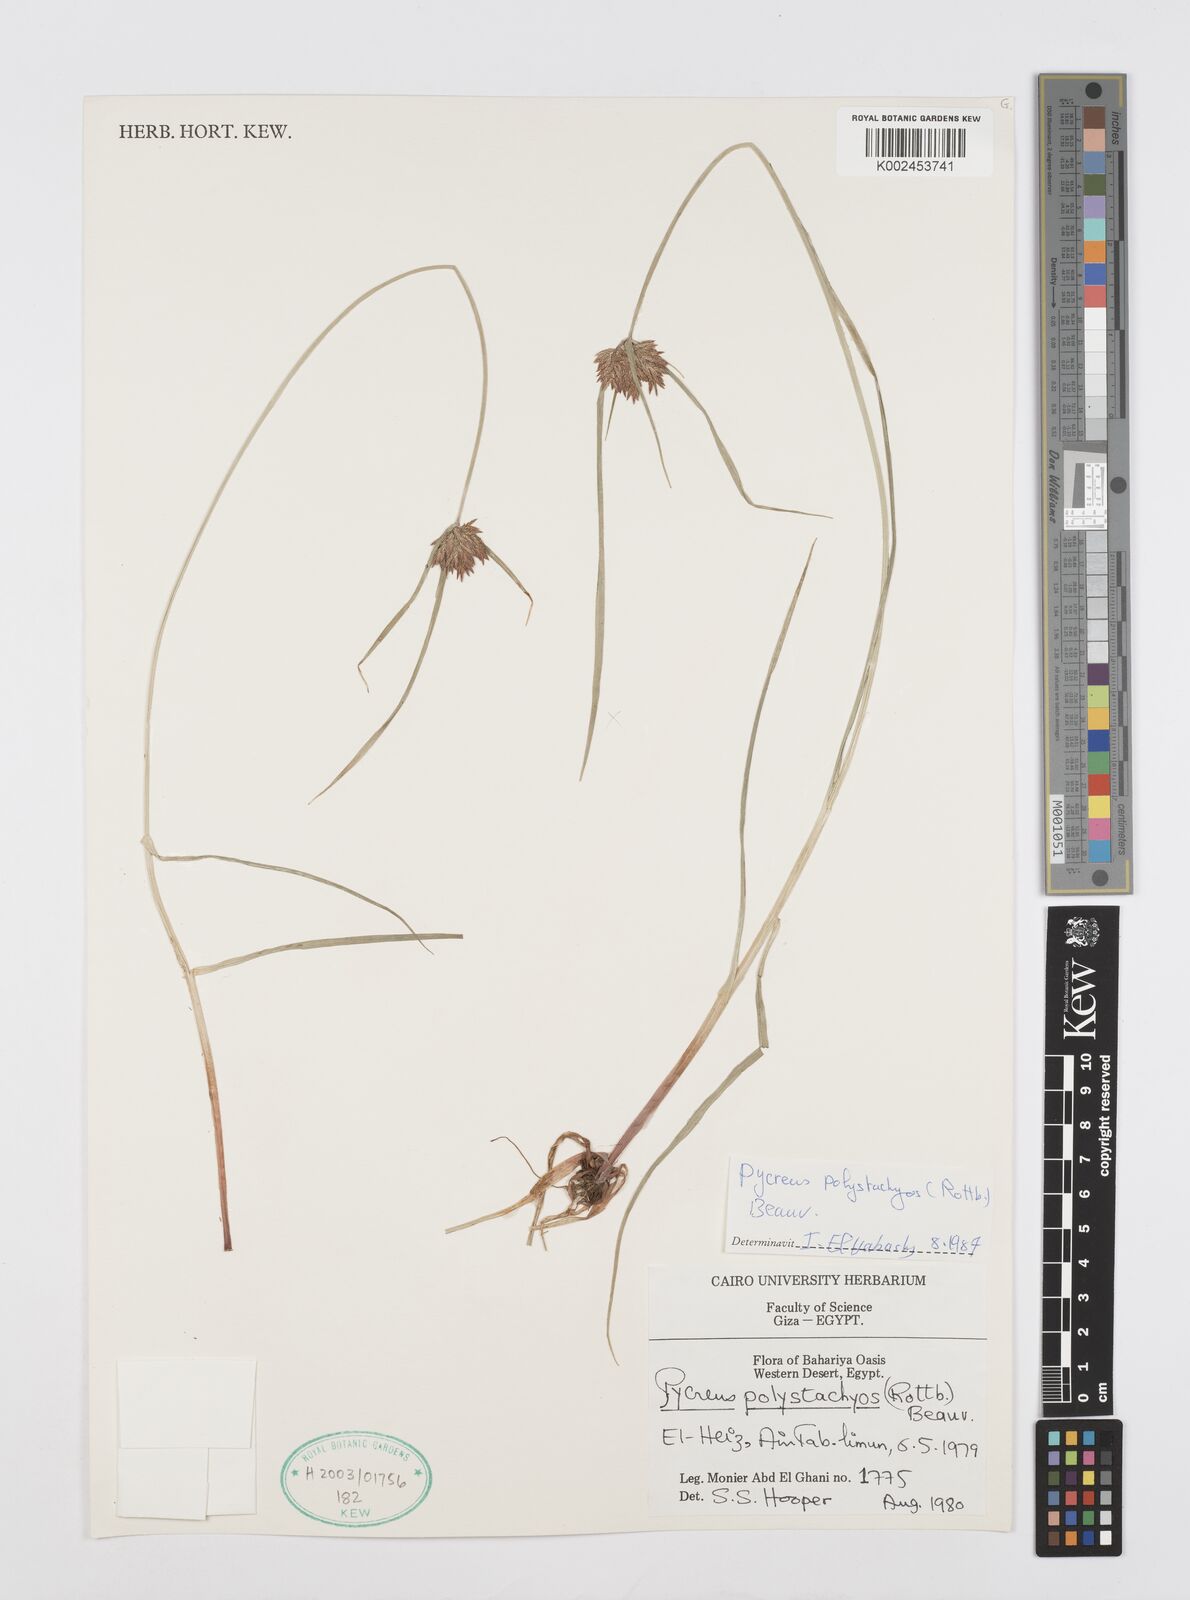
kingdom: Plantae
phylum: Tracheophyta
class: Liliopsida
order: Poales
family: Cyperaceae
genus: Cyperus
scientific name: Cyperus polystachyos
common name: Bunchy flat sedge
